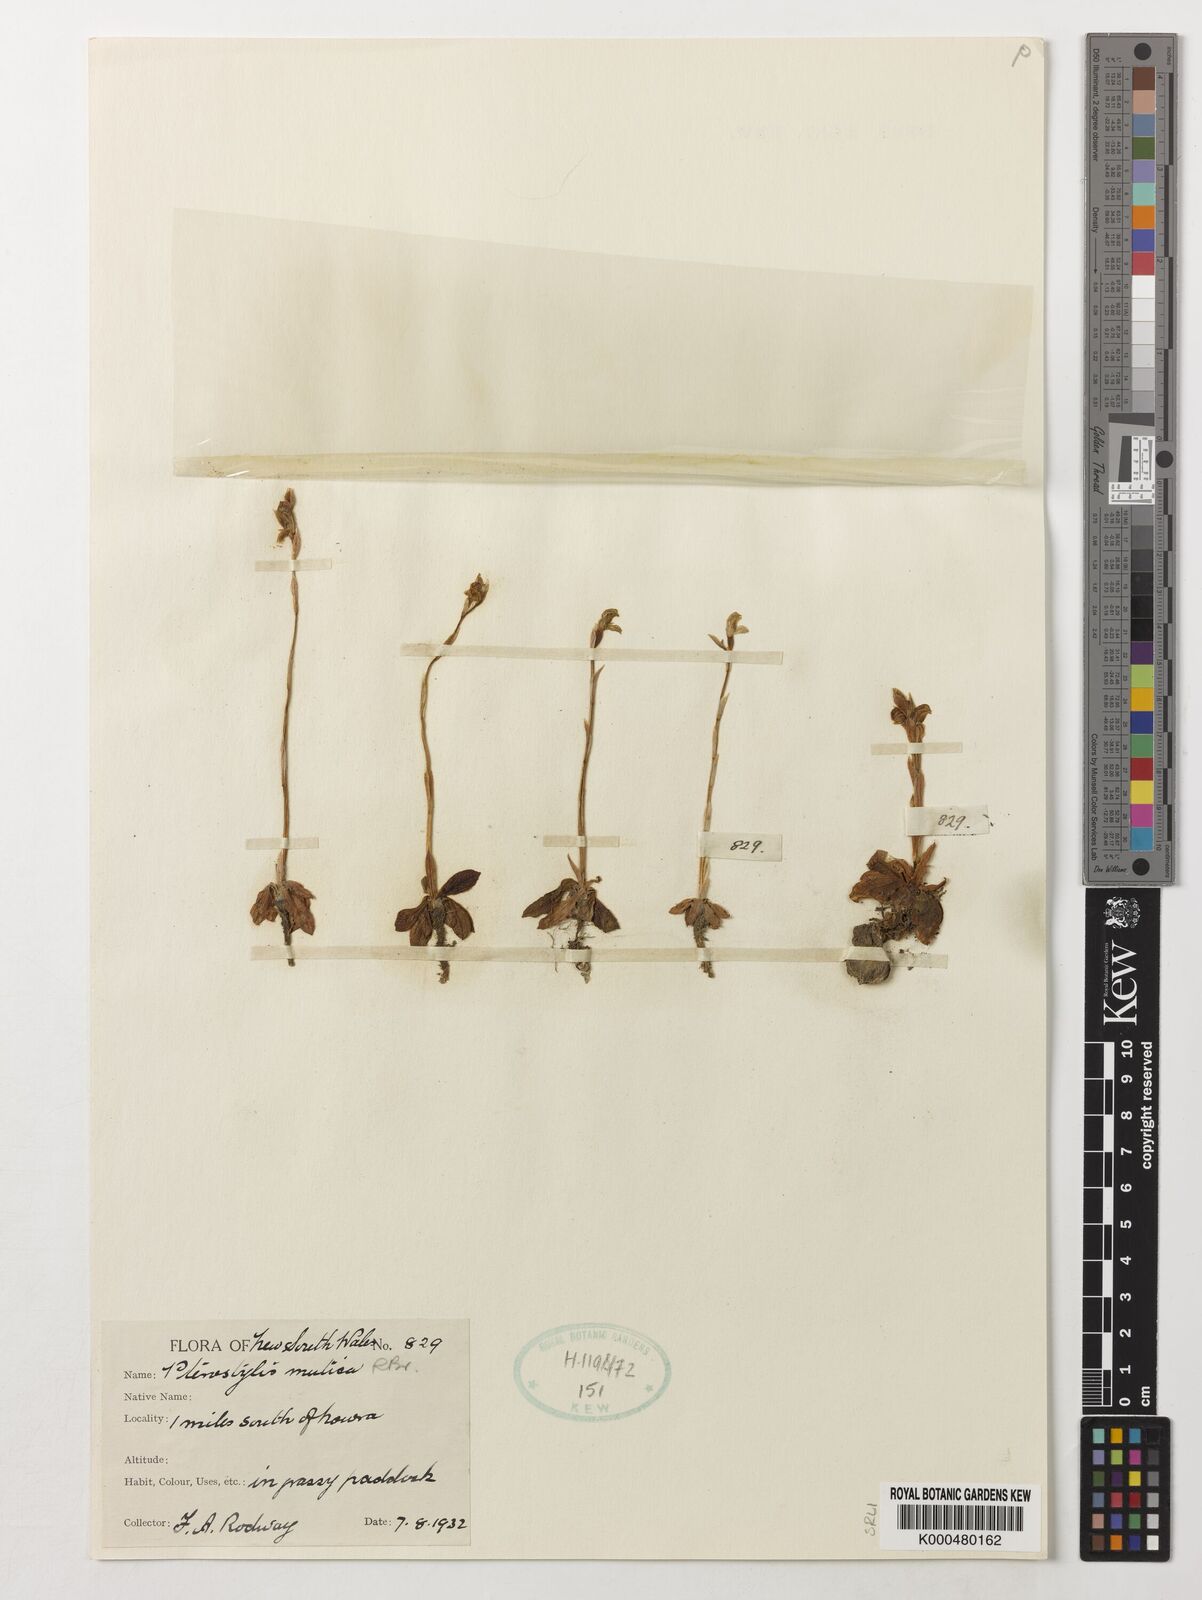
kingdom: Plantae
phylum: Tracheophyta
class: Liliopsida
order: Asparagales
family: Orchidaceae
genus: Pterostylis
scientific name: Pterostylis mutica
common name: Midget greenhood
